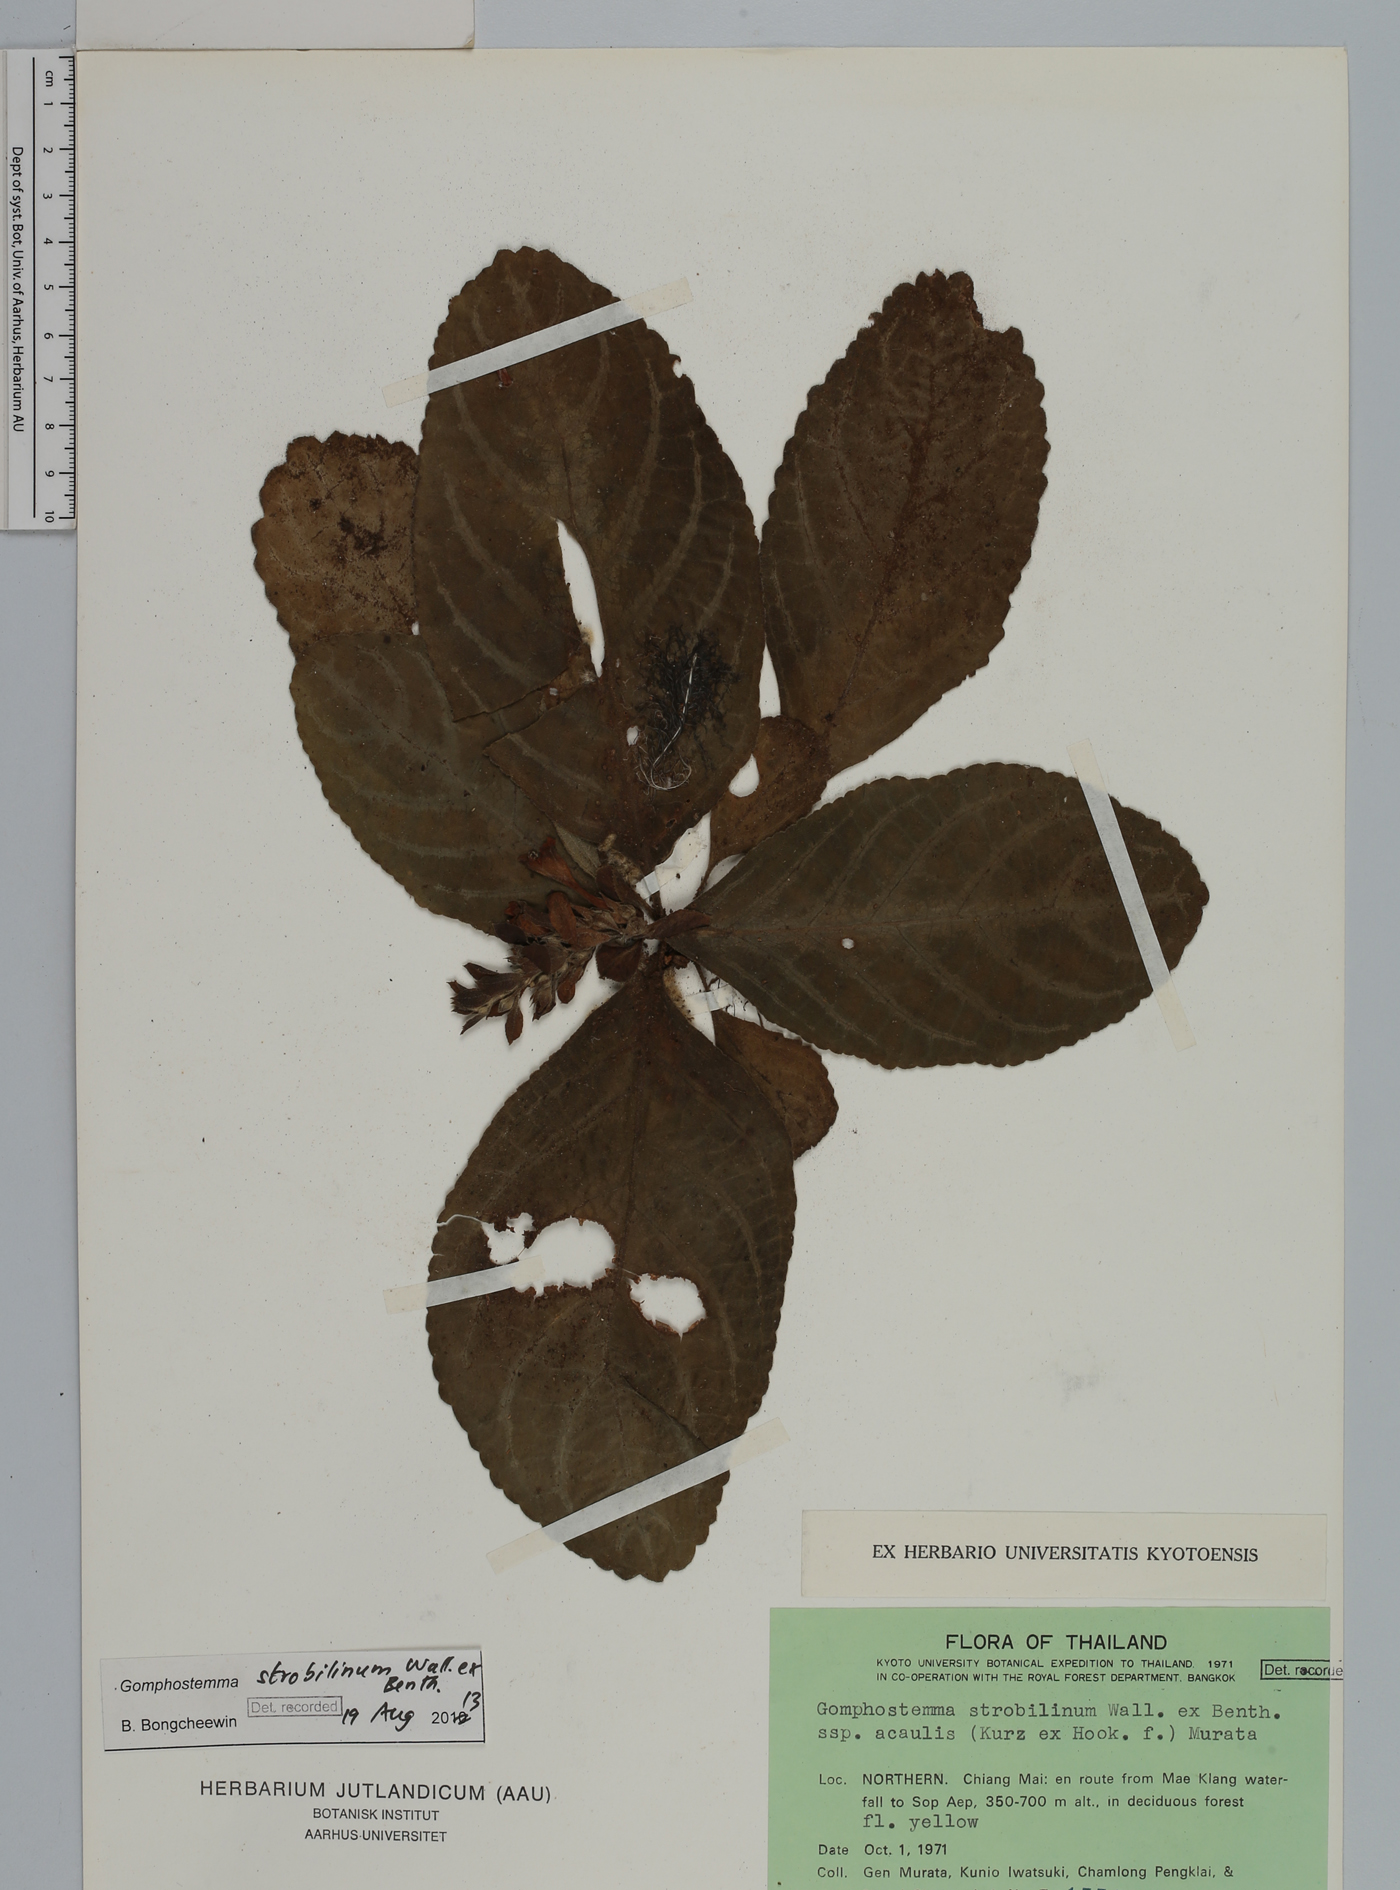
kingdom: Plantae
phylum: Tracheophyta
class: Magnoliopsida
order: Lamiales
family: Lamiaceae
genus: Gomphostemma
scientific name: Gomphostemma strobilinum
